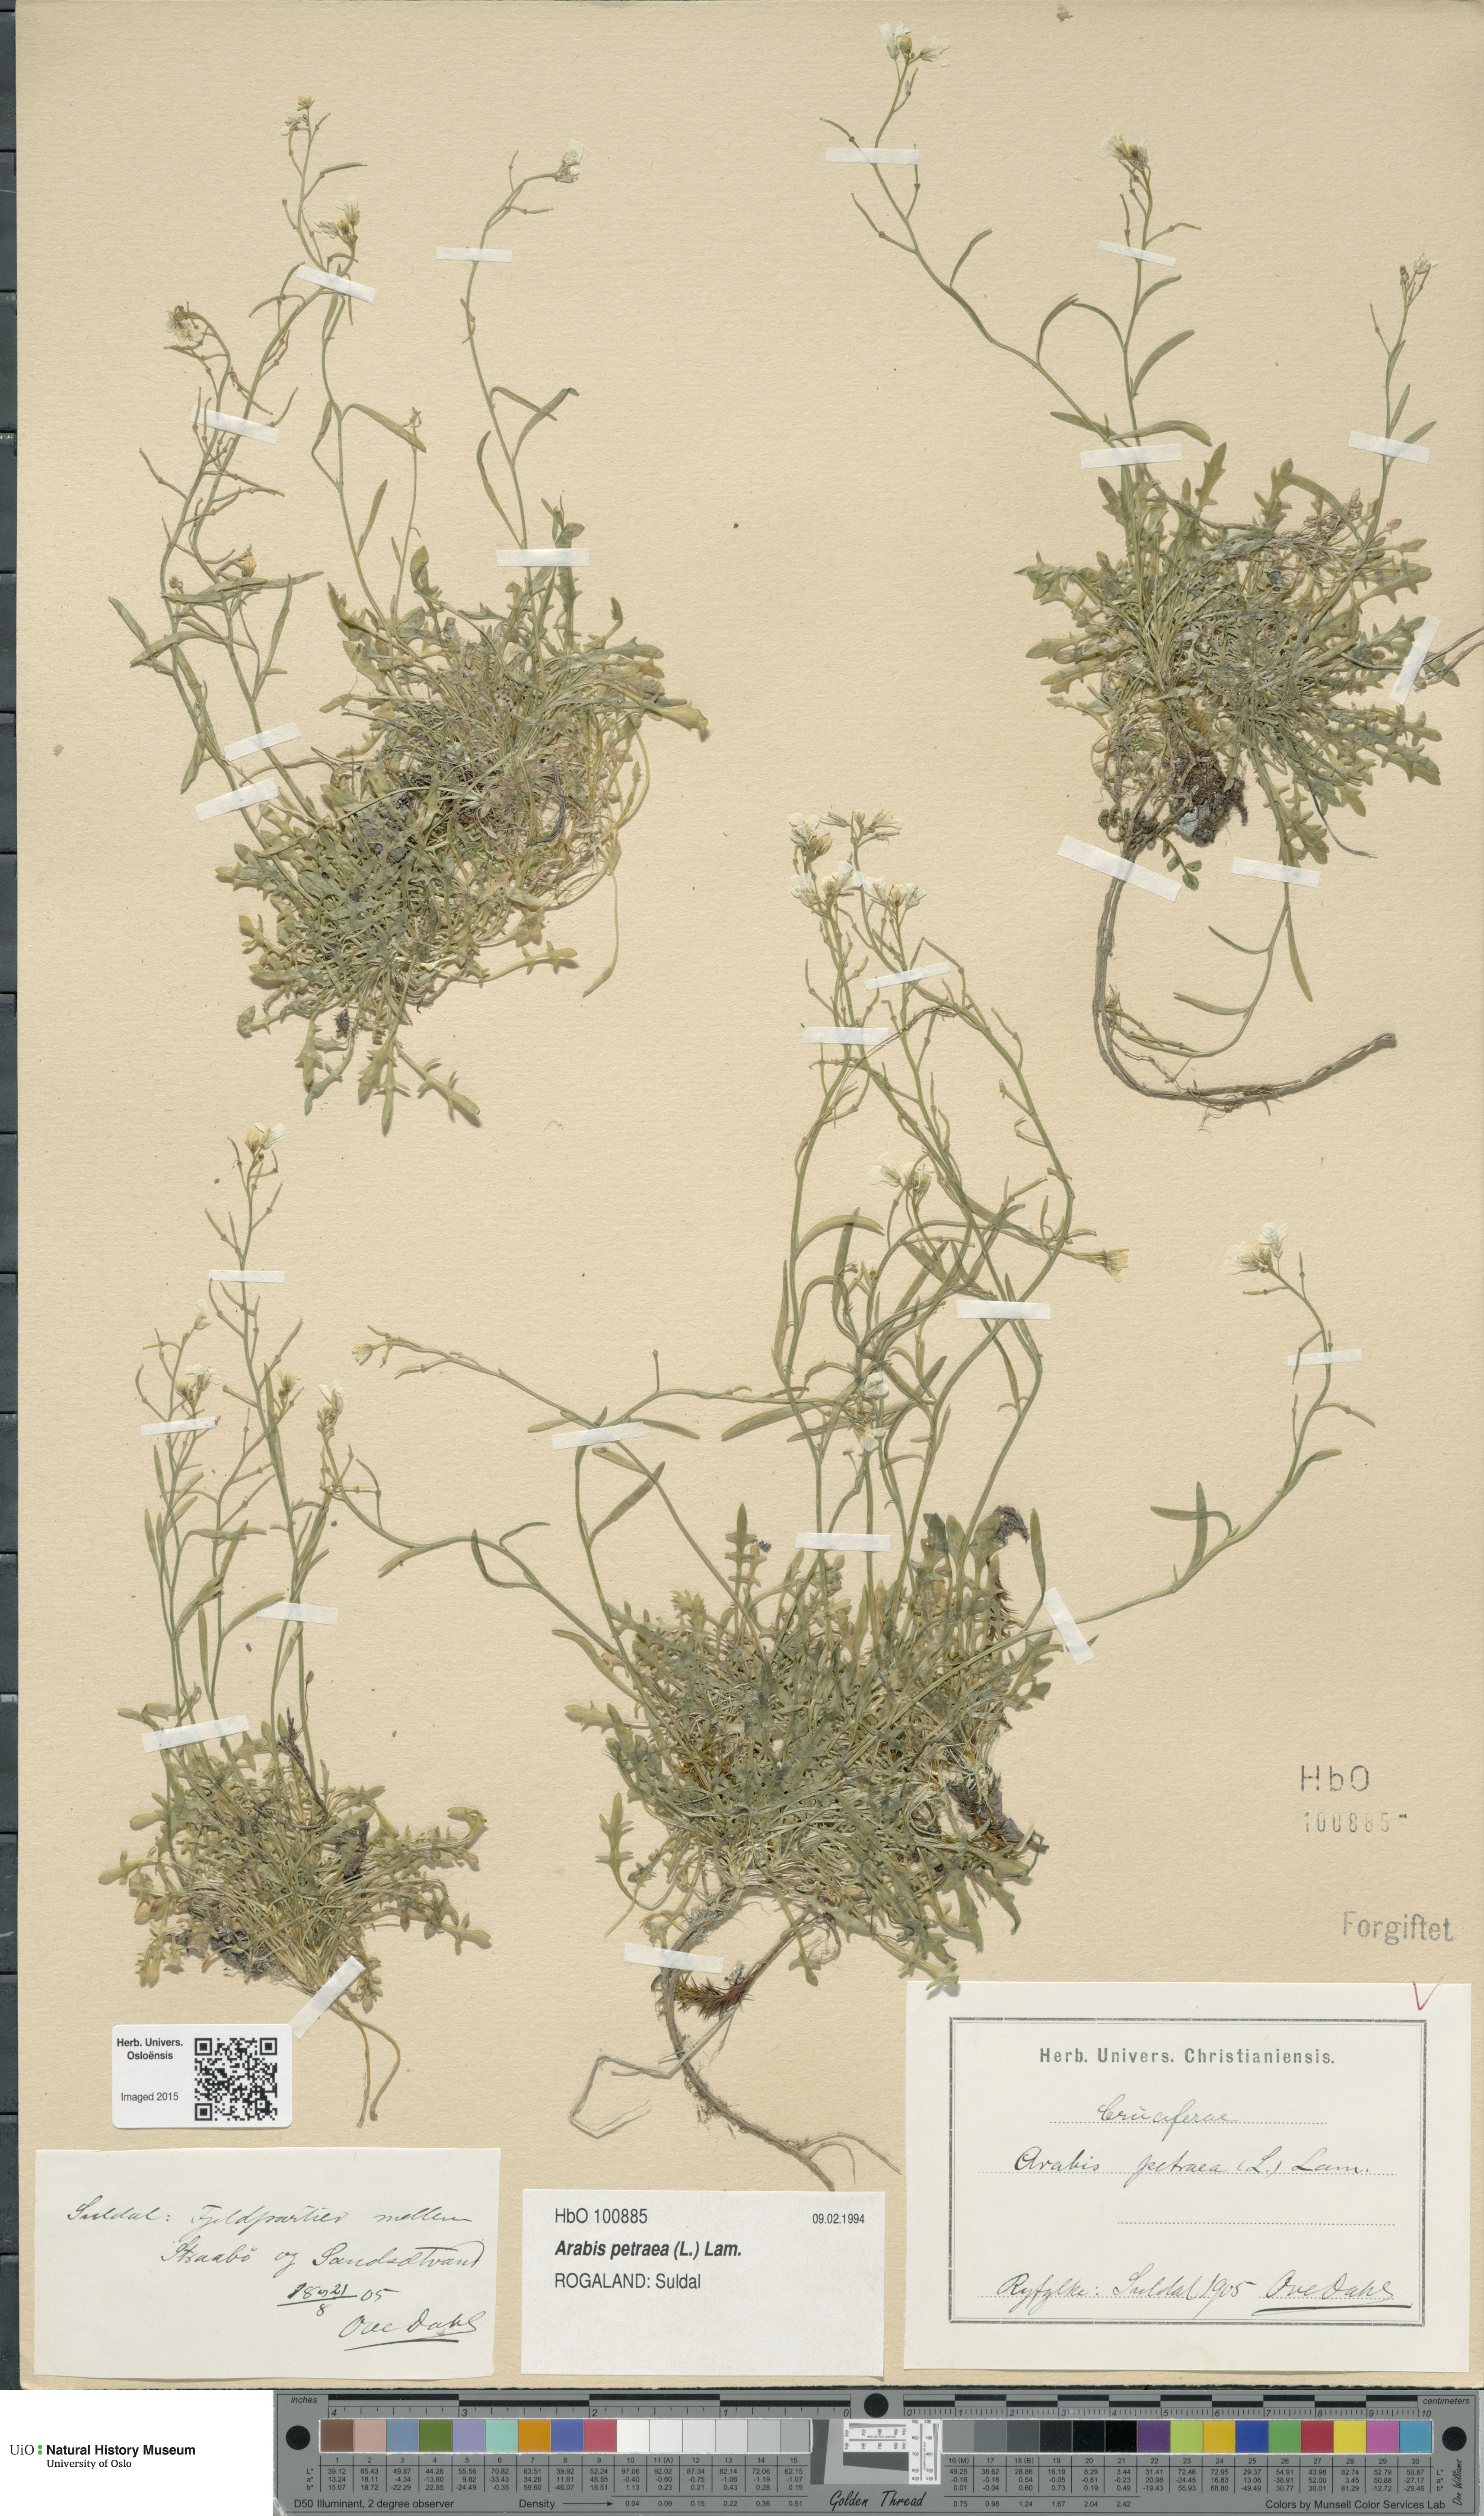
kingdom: Plantae
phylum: Tracheophyta
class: Magnoliopsida
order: Brassicales
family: Brassicaceae
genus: Arabidopsis
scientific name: Arabidopsis petraea
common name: Northern rock-cress
